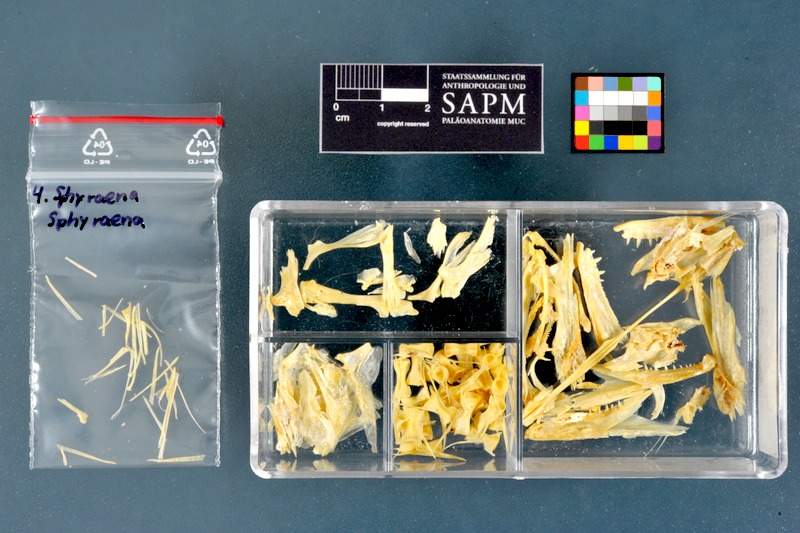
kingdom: Animalia
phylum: Chordata
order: Perciformes
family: Sphyraenidae
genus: Sphyraena
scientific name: Sphyraena sphyraena
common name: European barracuda
